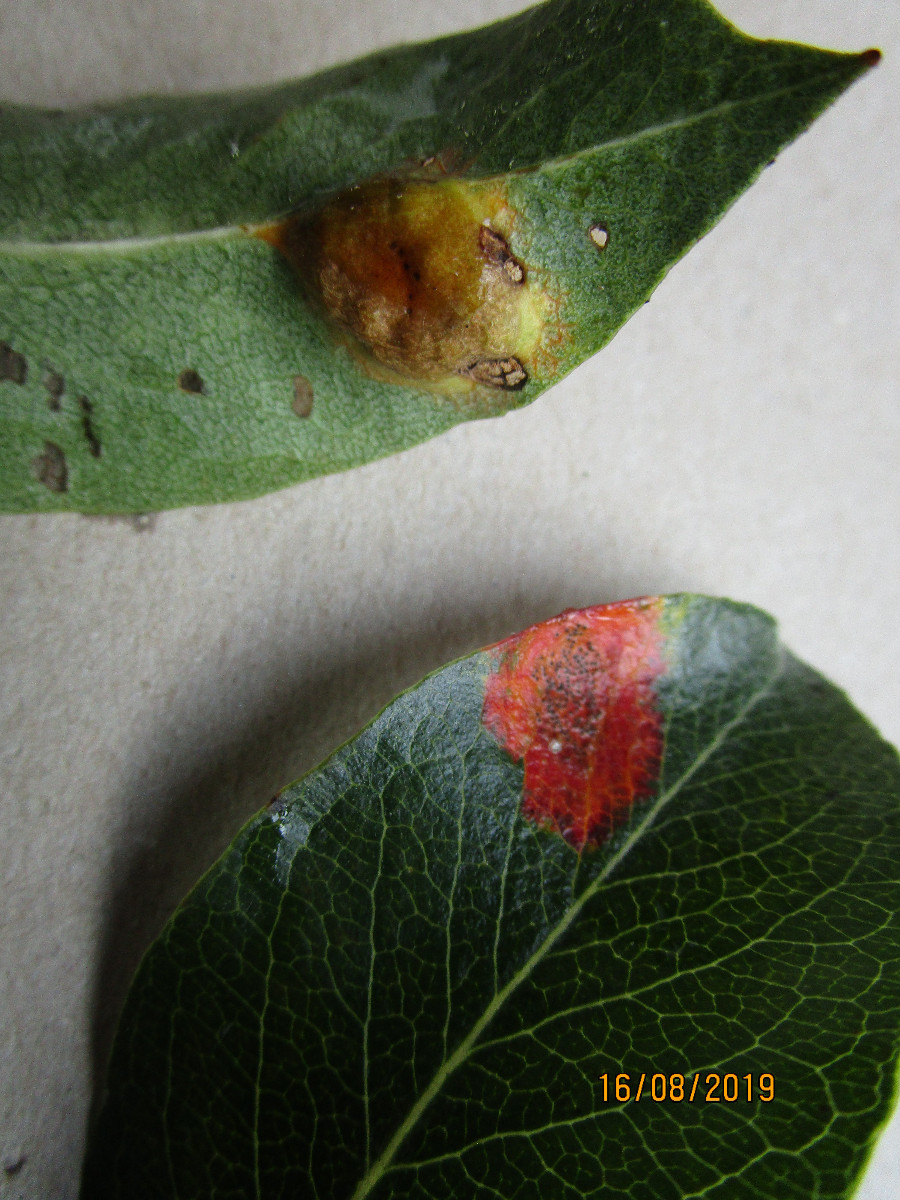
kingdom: Fungi
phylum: Basidiomycota
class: Pucciniomycetes
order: Pucciniales
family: Gymnosporangiaceae
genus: Gymnosporangium
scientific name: Gymnosporangium sabinae
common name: pæregitter-bævrerust
